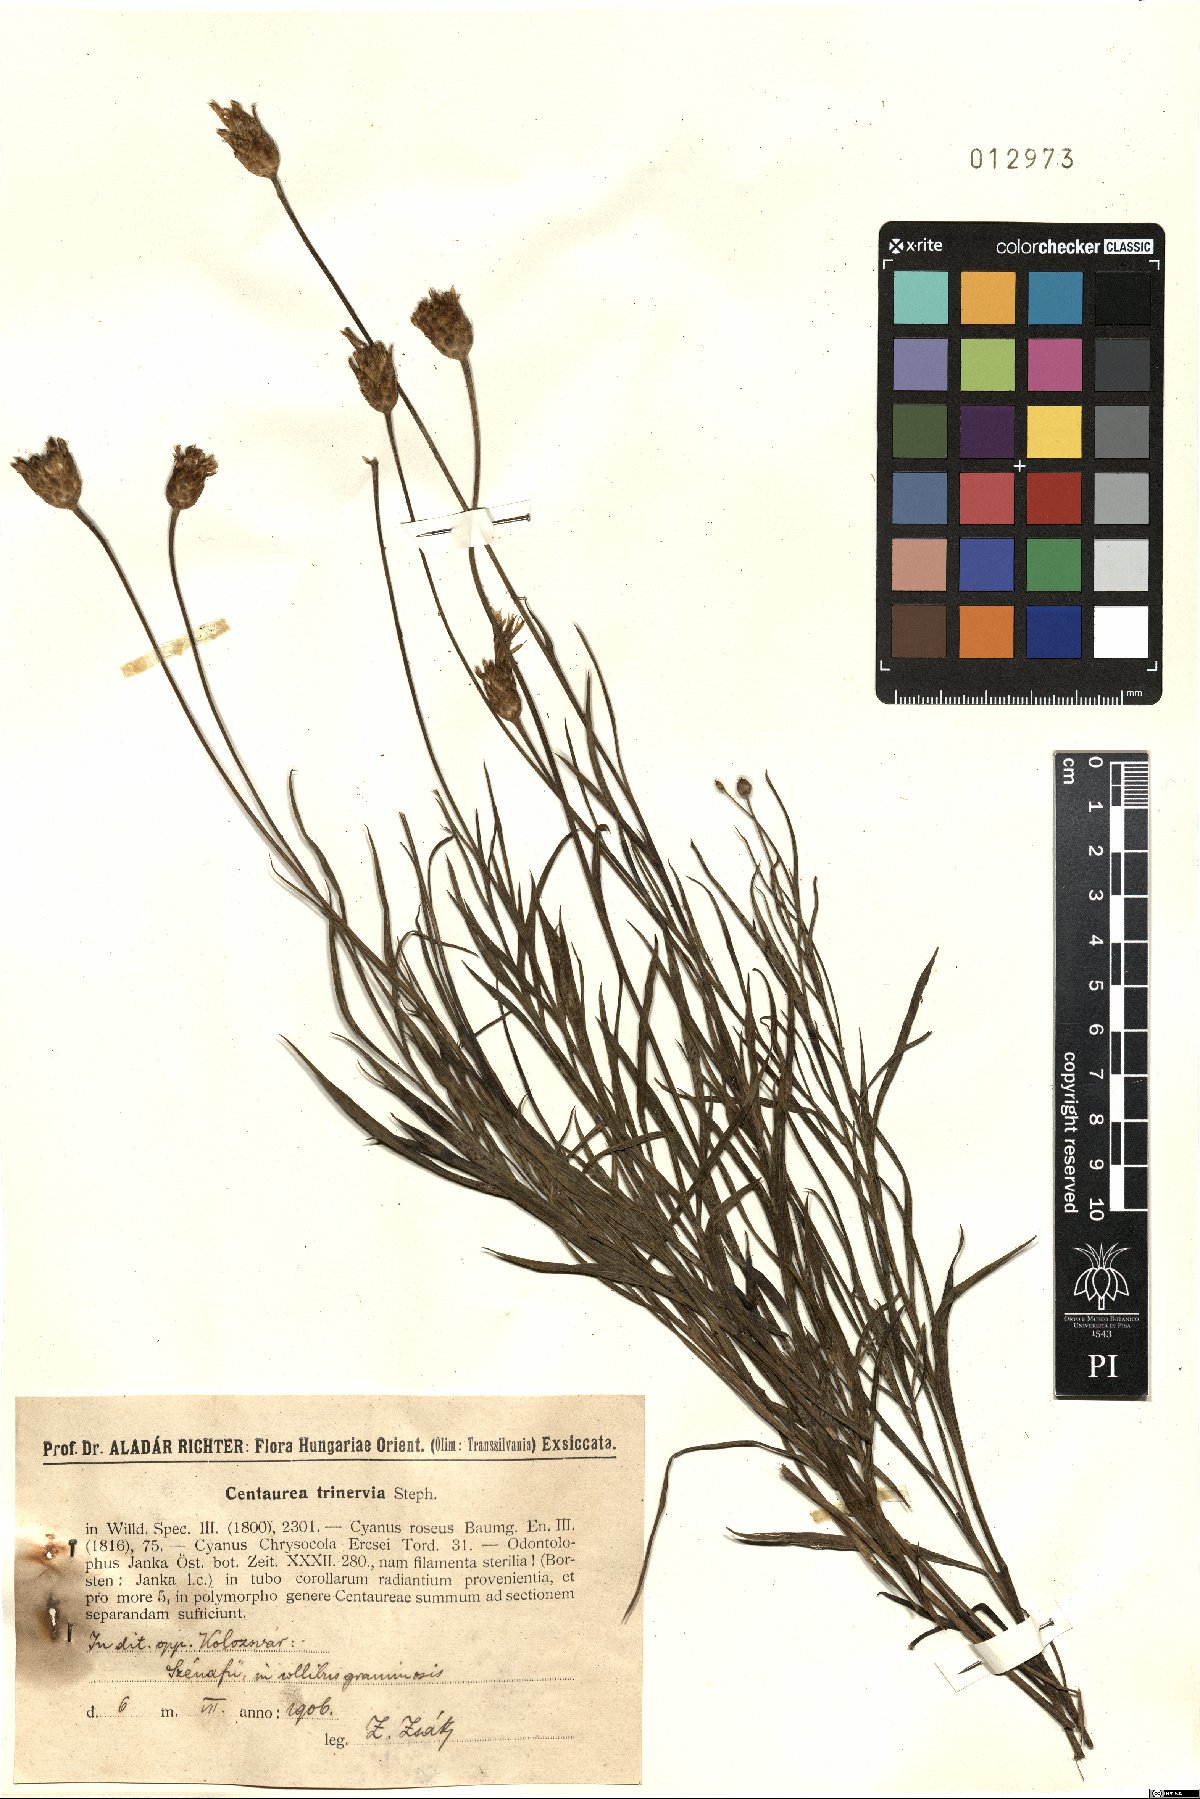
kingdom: Plantae
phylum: Tracheophyta
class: Magnoliopsida
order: Asterales
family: Asteraceae
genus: Psephellus
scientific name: Psephellus trinervius
